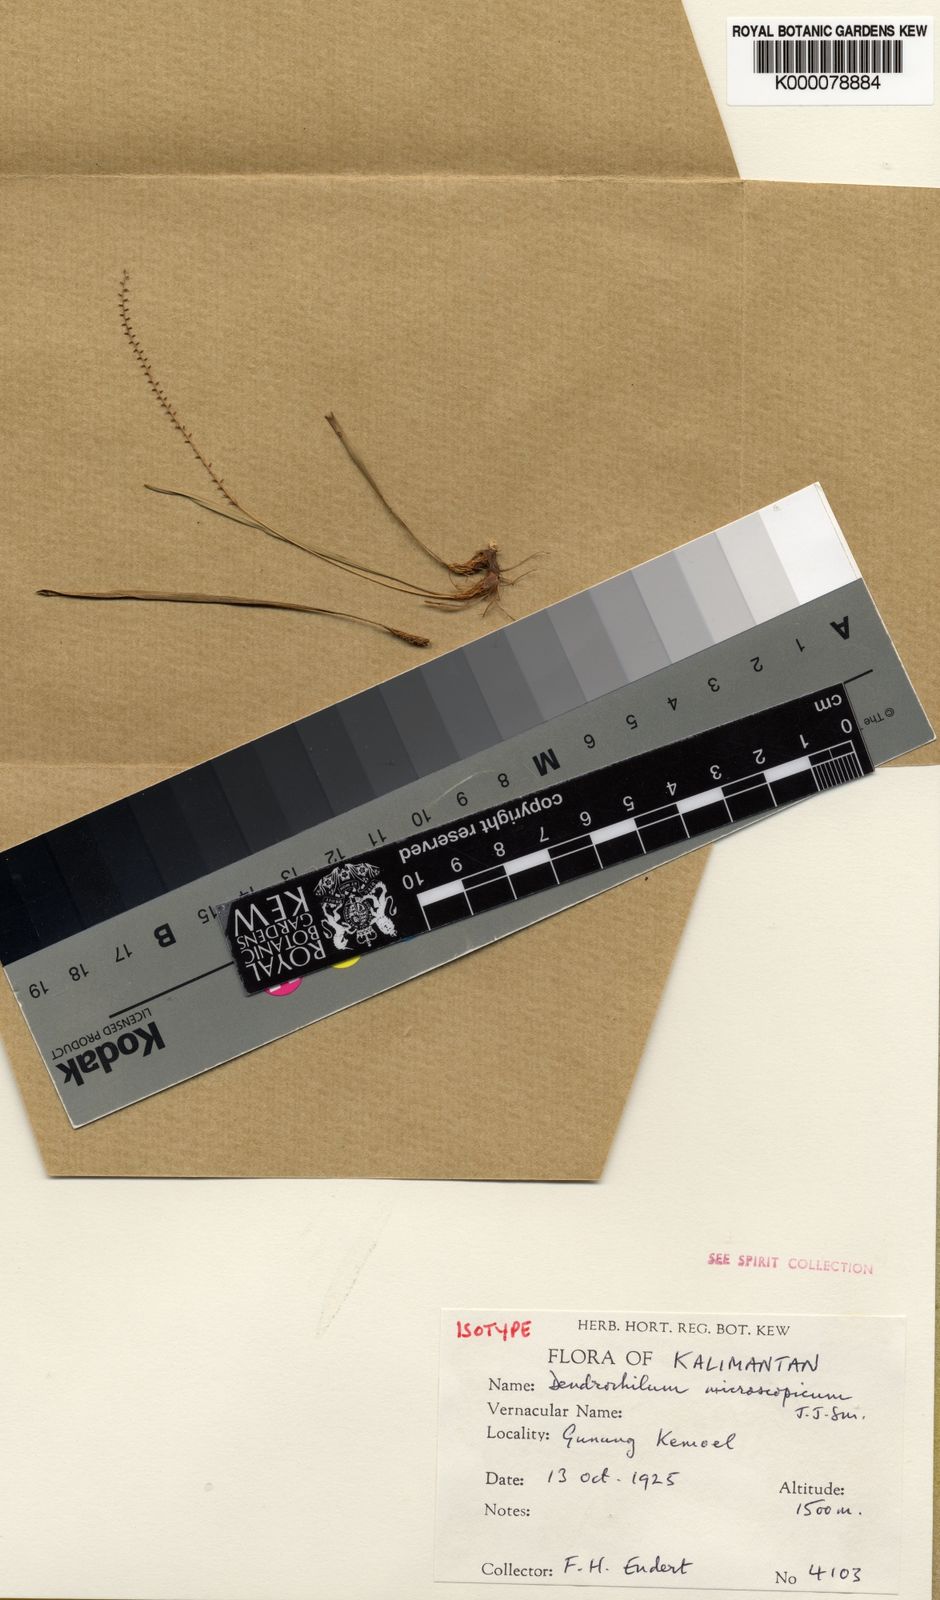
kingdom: Plantae
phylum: Tracheophyta
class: Liliopsida
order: Asparagales
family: Orchidaceae
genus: Coelogyne
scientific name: Coelogyne microscopica
